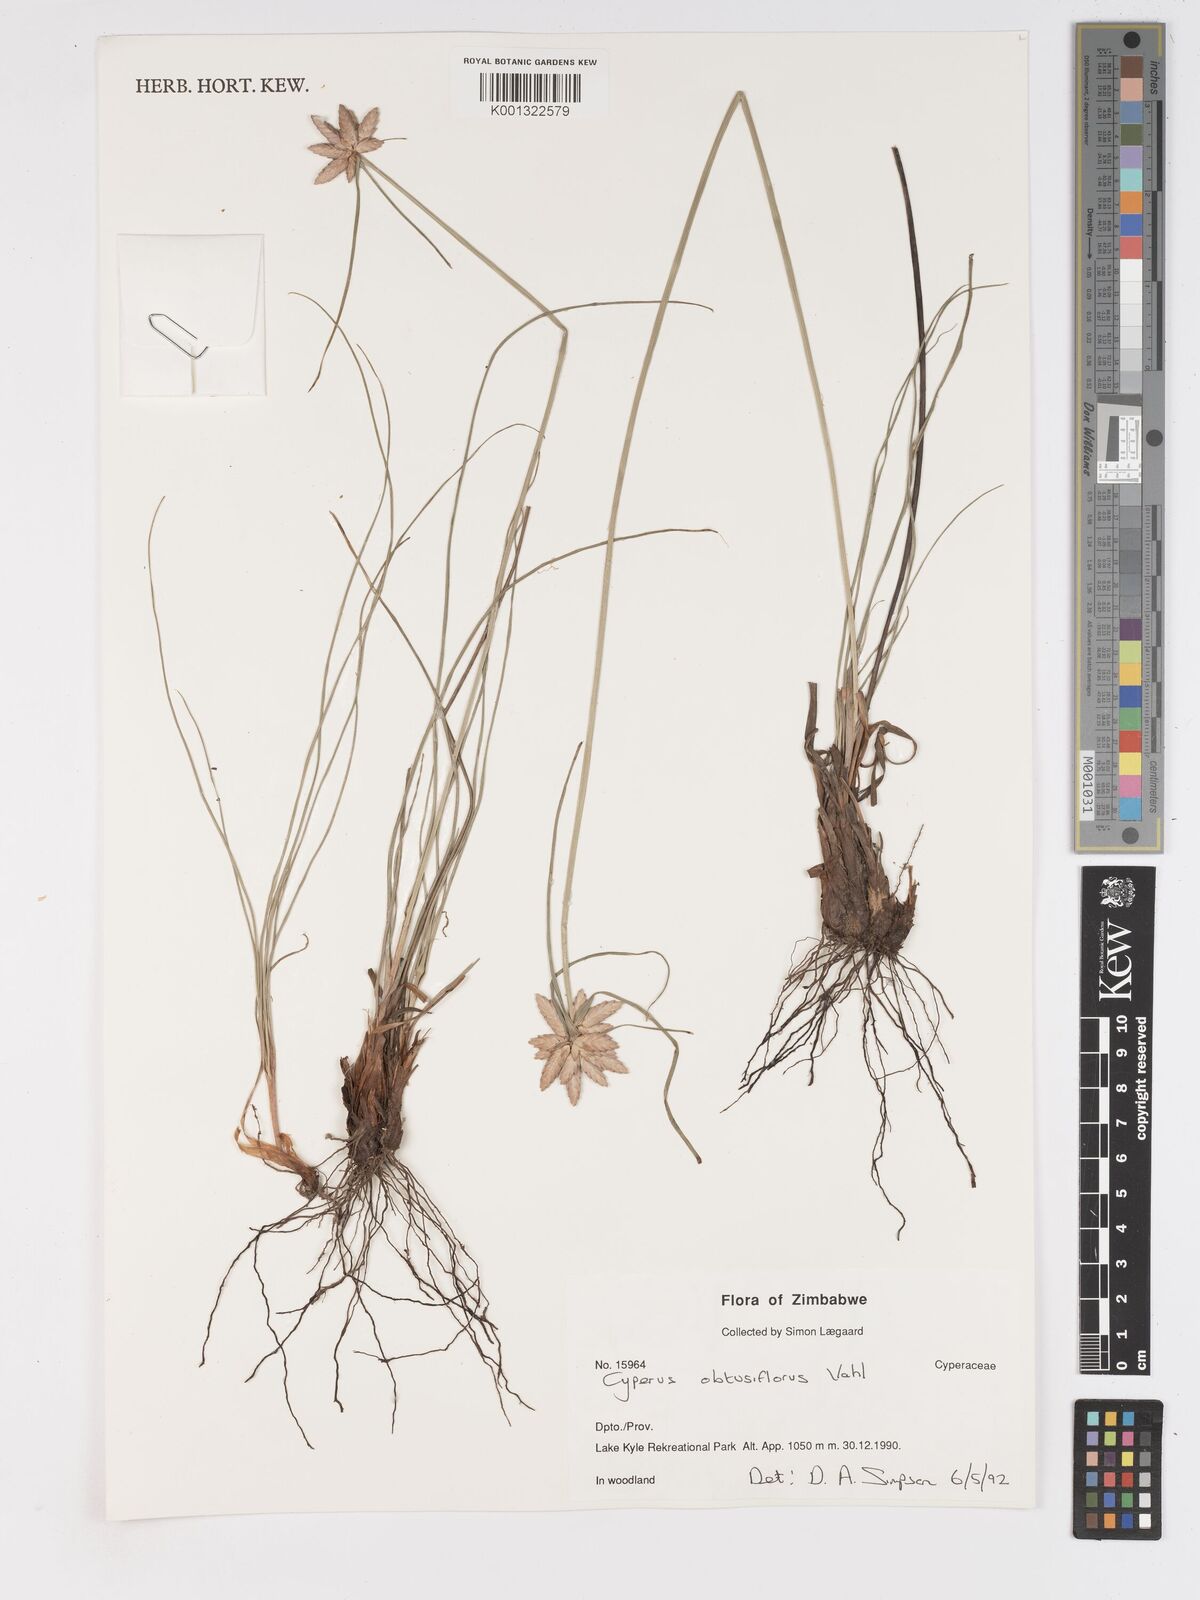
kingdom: Plantae
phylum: Tracheophyta
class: Liliopsida
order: Poales
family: Cyperaceae
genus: Cyperus
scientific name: Cyperus niveus
